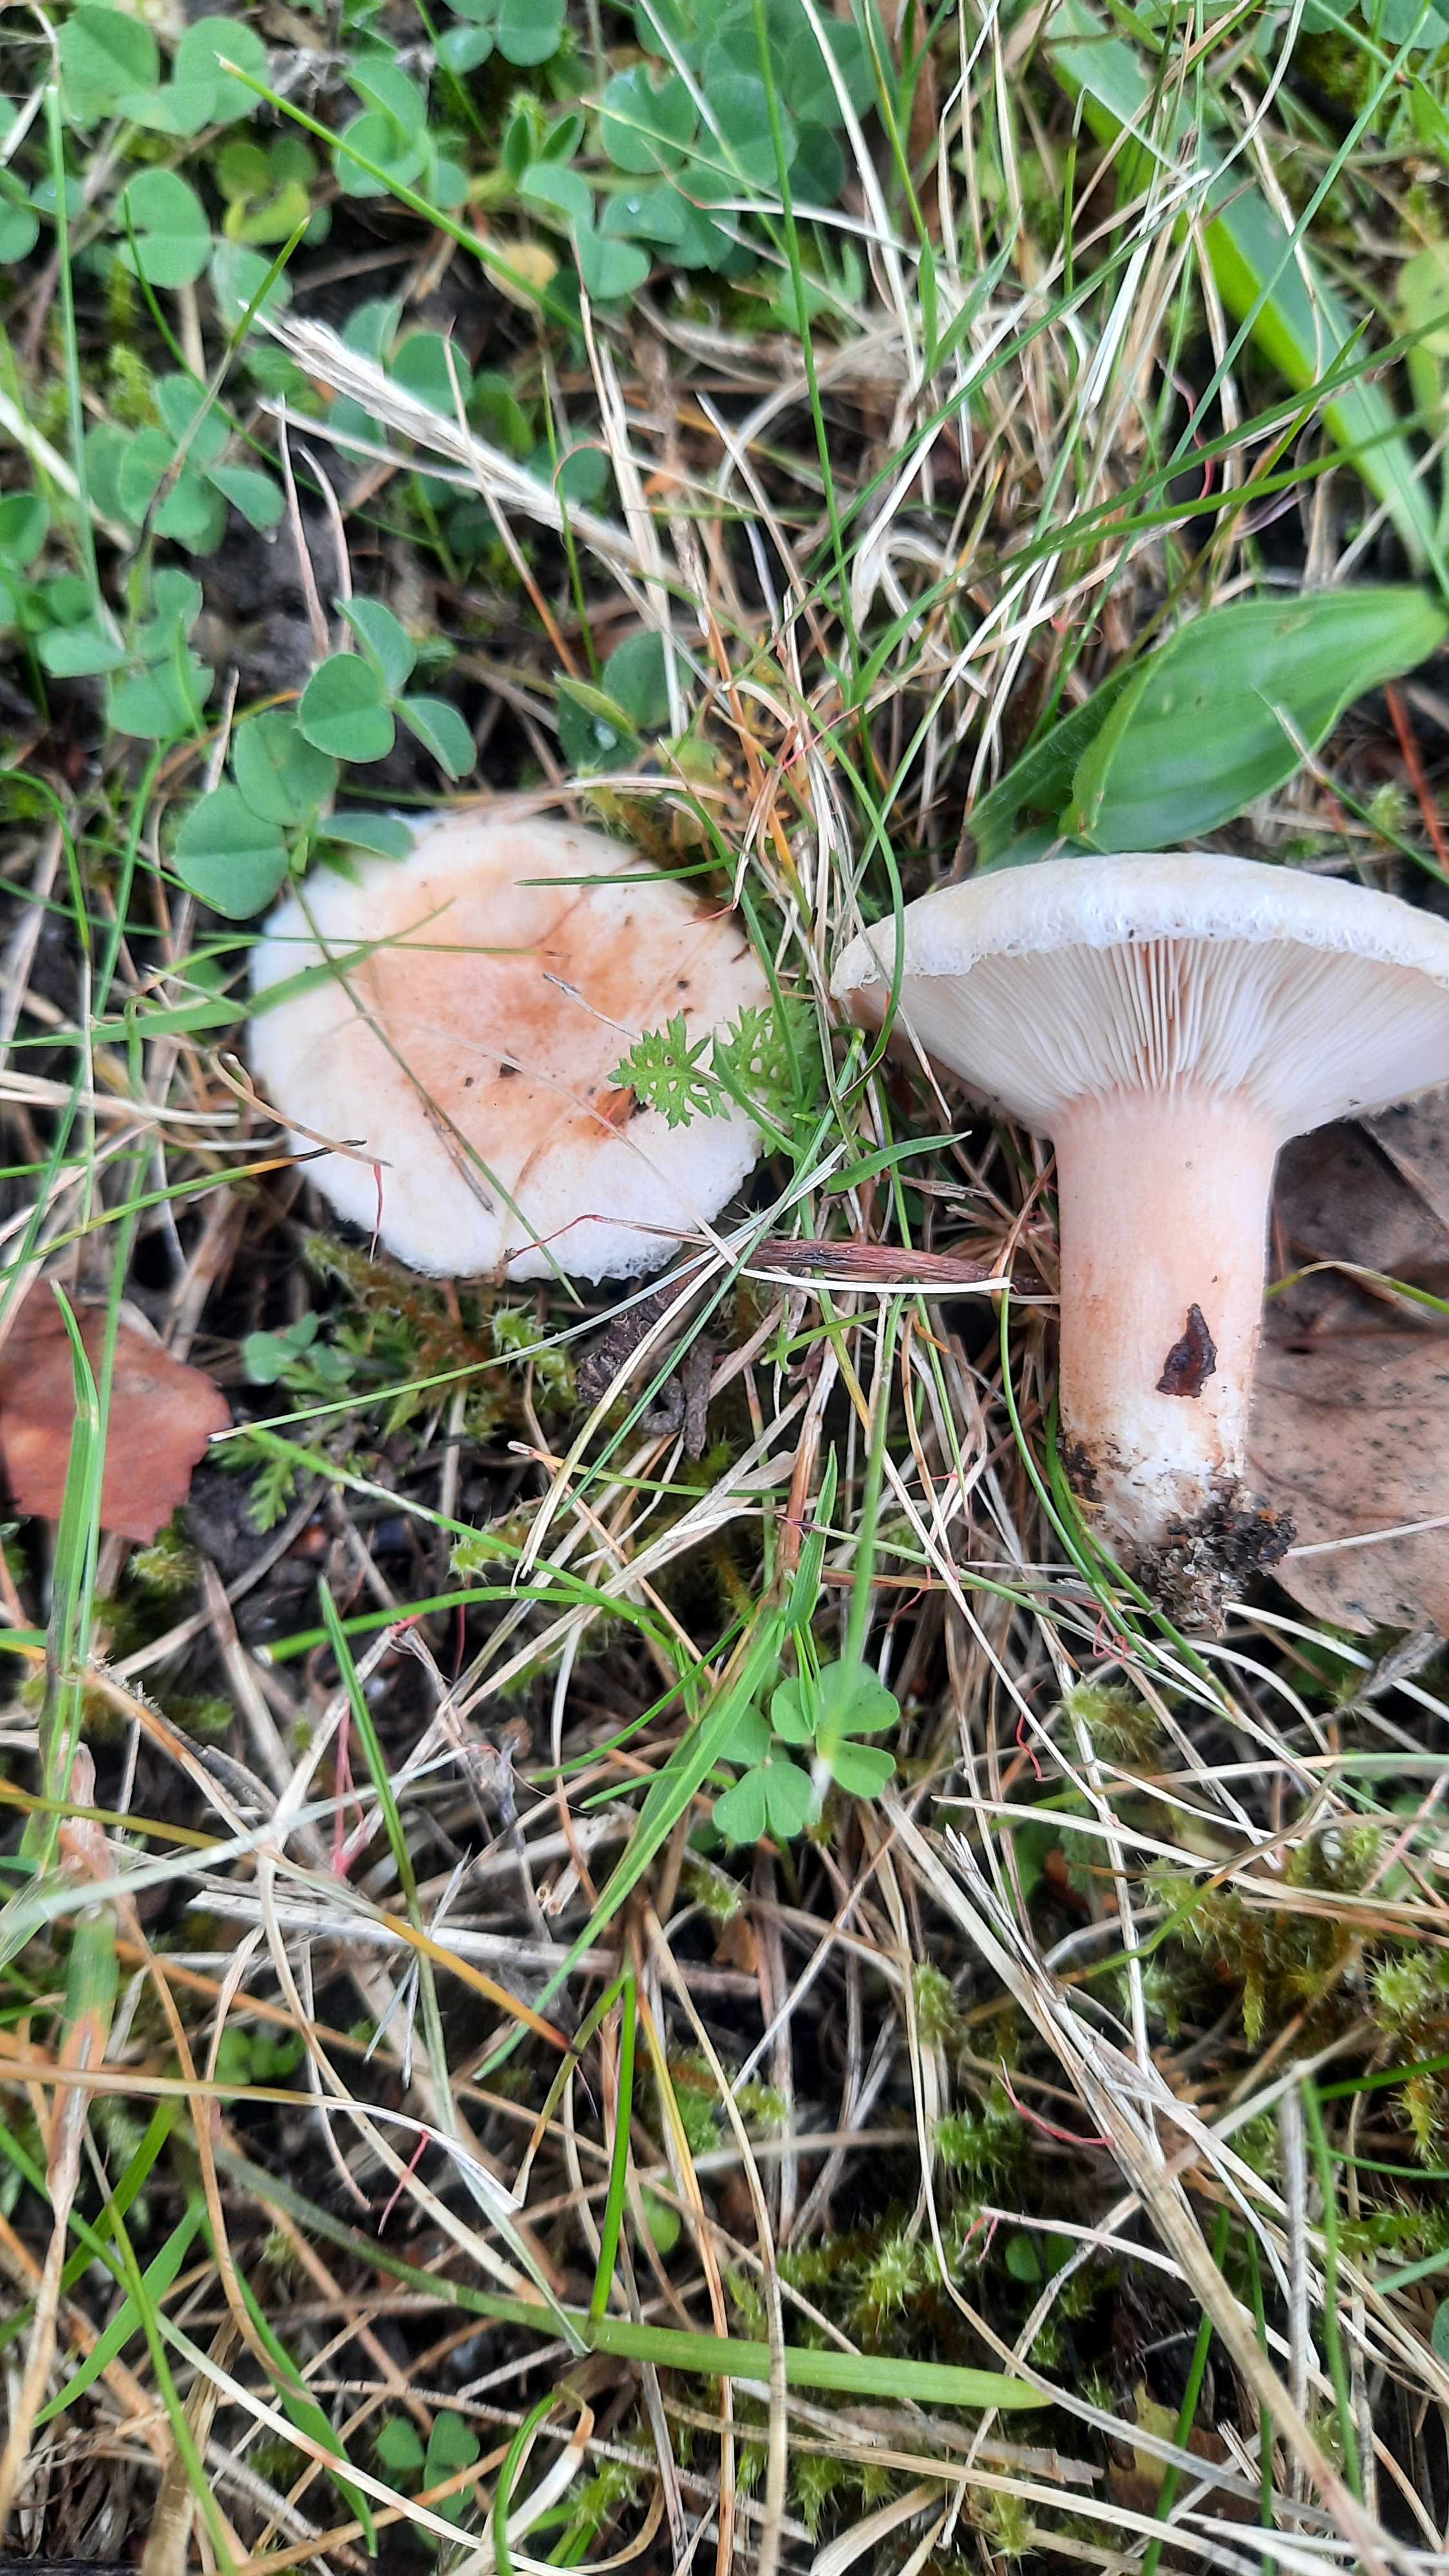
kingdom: Fungi
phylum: Basidiomycota
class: Agaricomycetes
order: Russulales
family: Russulaceae
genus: Lactarius
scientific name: Lactarius torminosus
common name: skægget mælkehat
